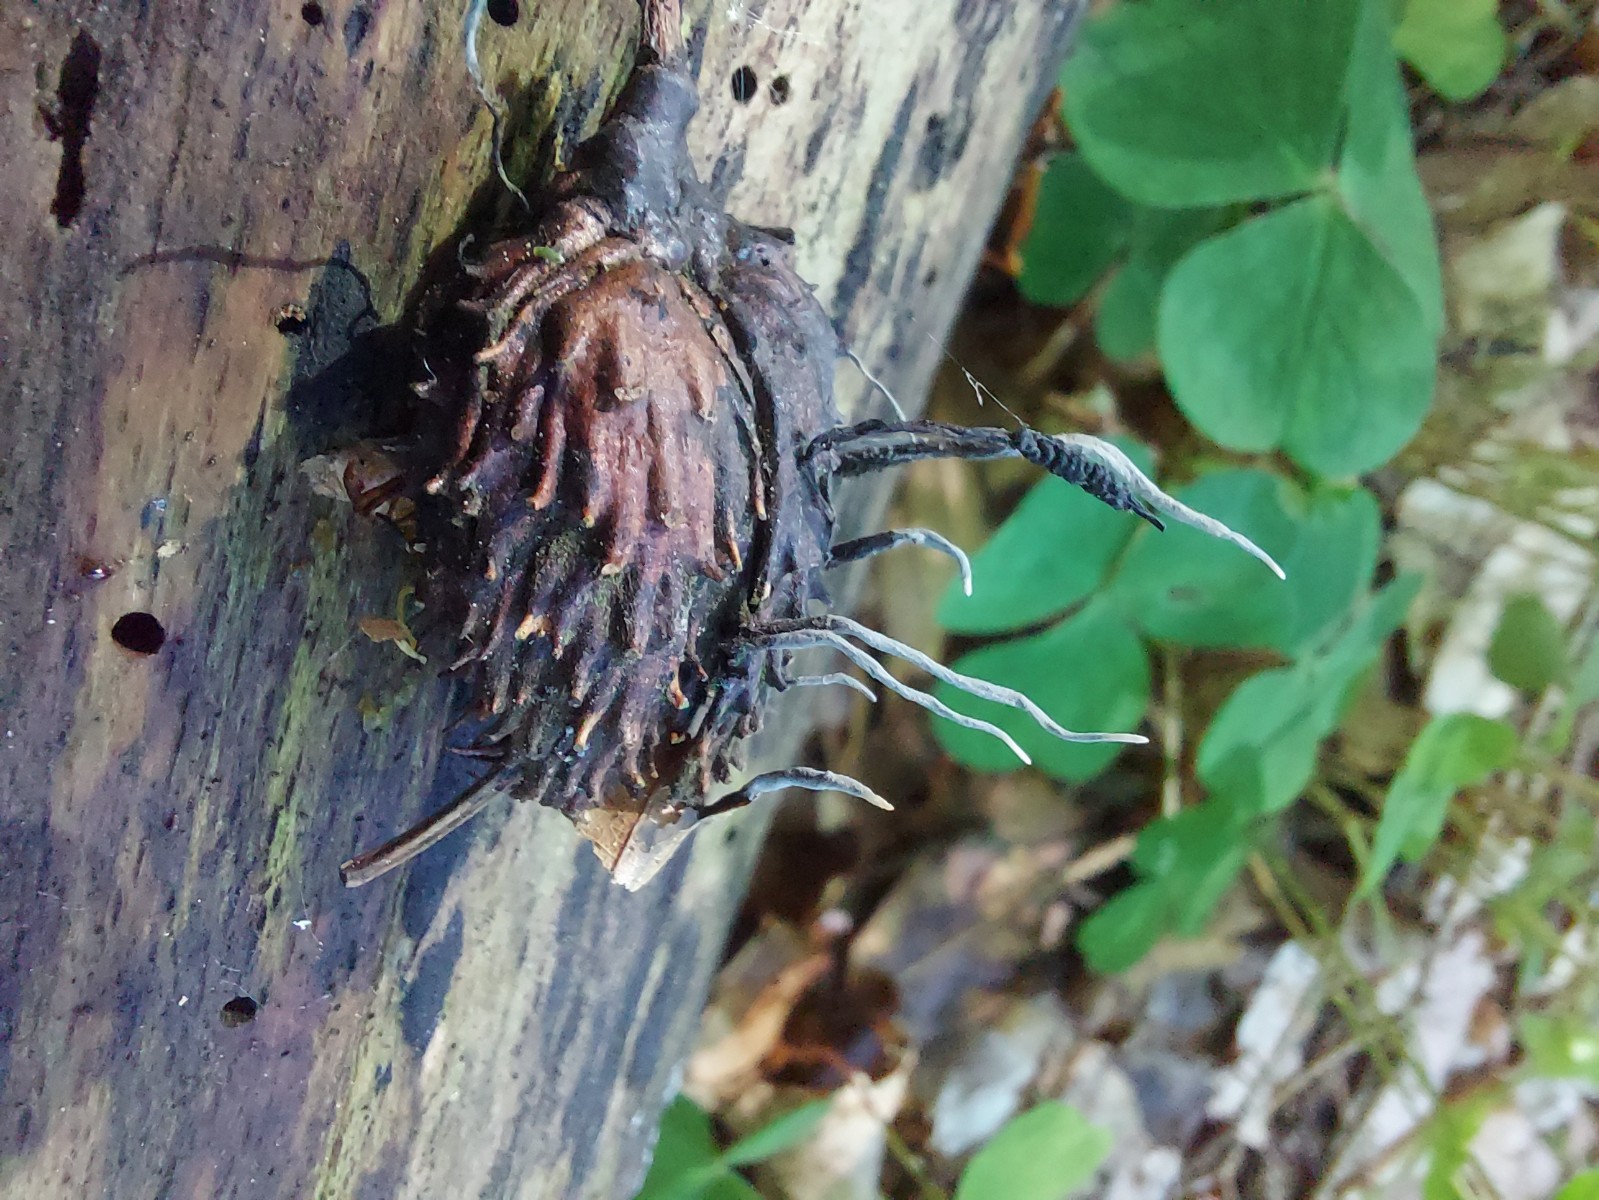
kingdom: Fungi
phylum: Ascomycota
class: Sordariomycetes
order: Xylariales
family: Xylariaceae
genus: Xylaria
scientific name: Xylaria carpophila
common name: bogskål-stødsvamp
